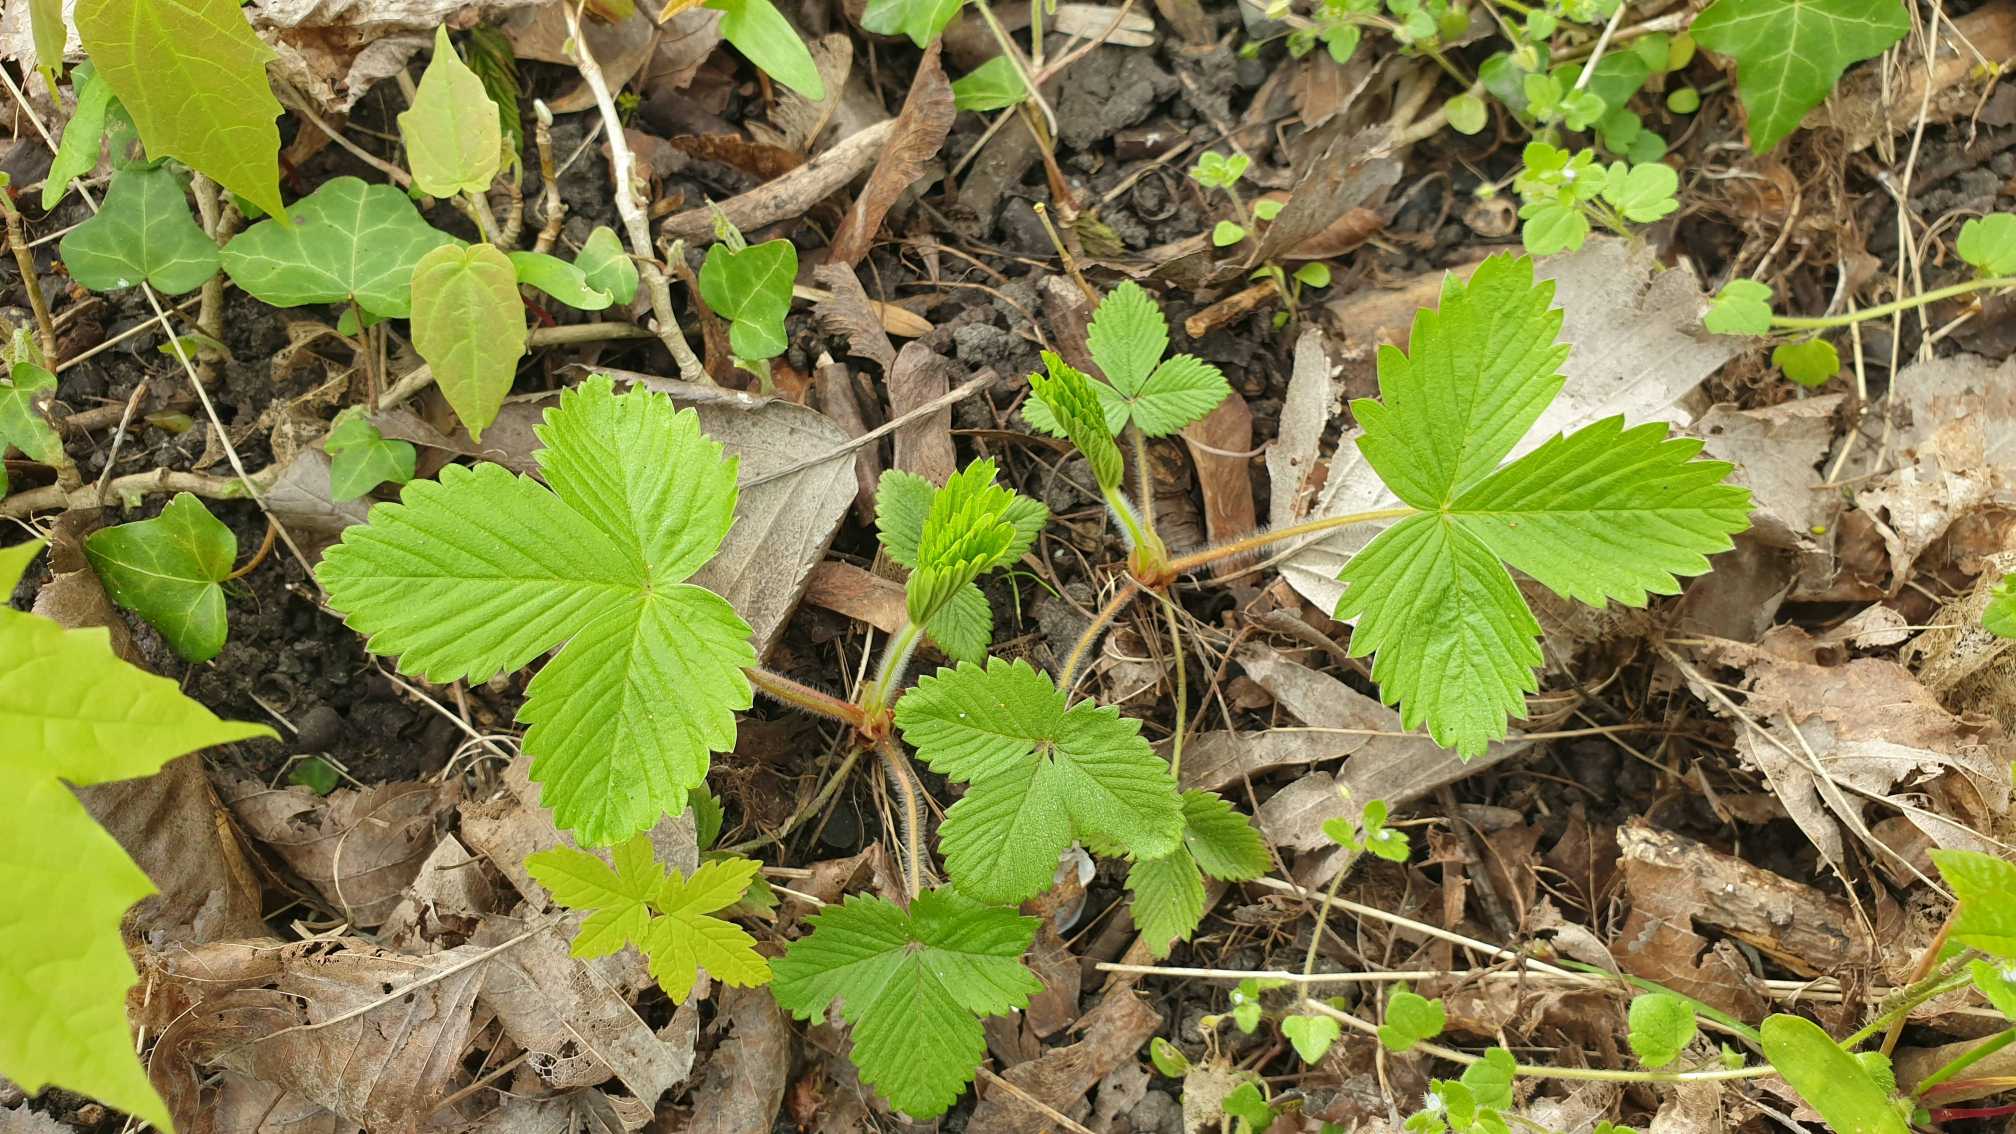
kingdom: Plantae
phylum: Tracheophyta
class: Magnoliopsida
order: Rosales
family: Rosaceae
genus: Fragaria
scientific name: Fragaria vesca
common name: Skov-jordbær
